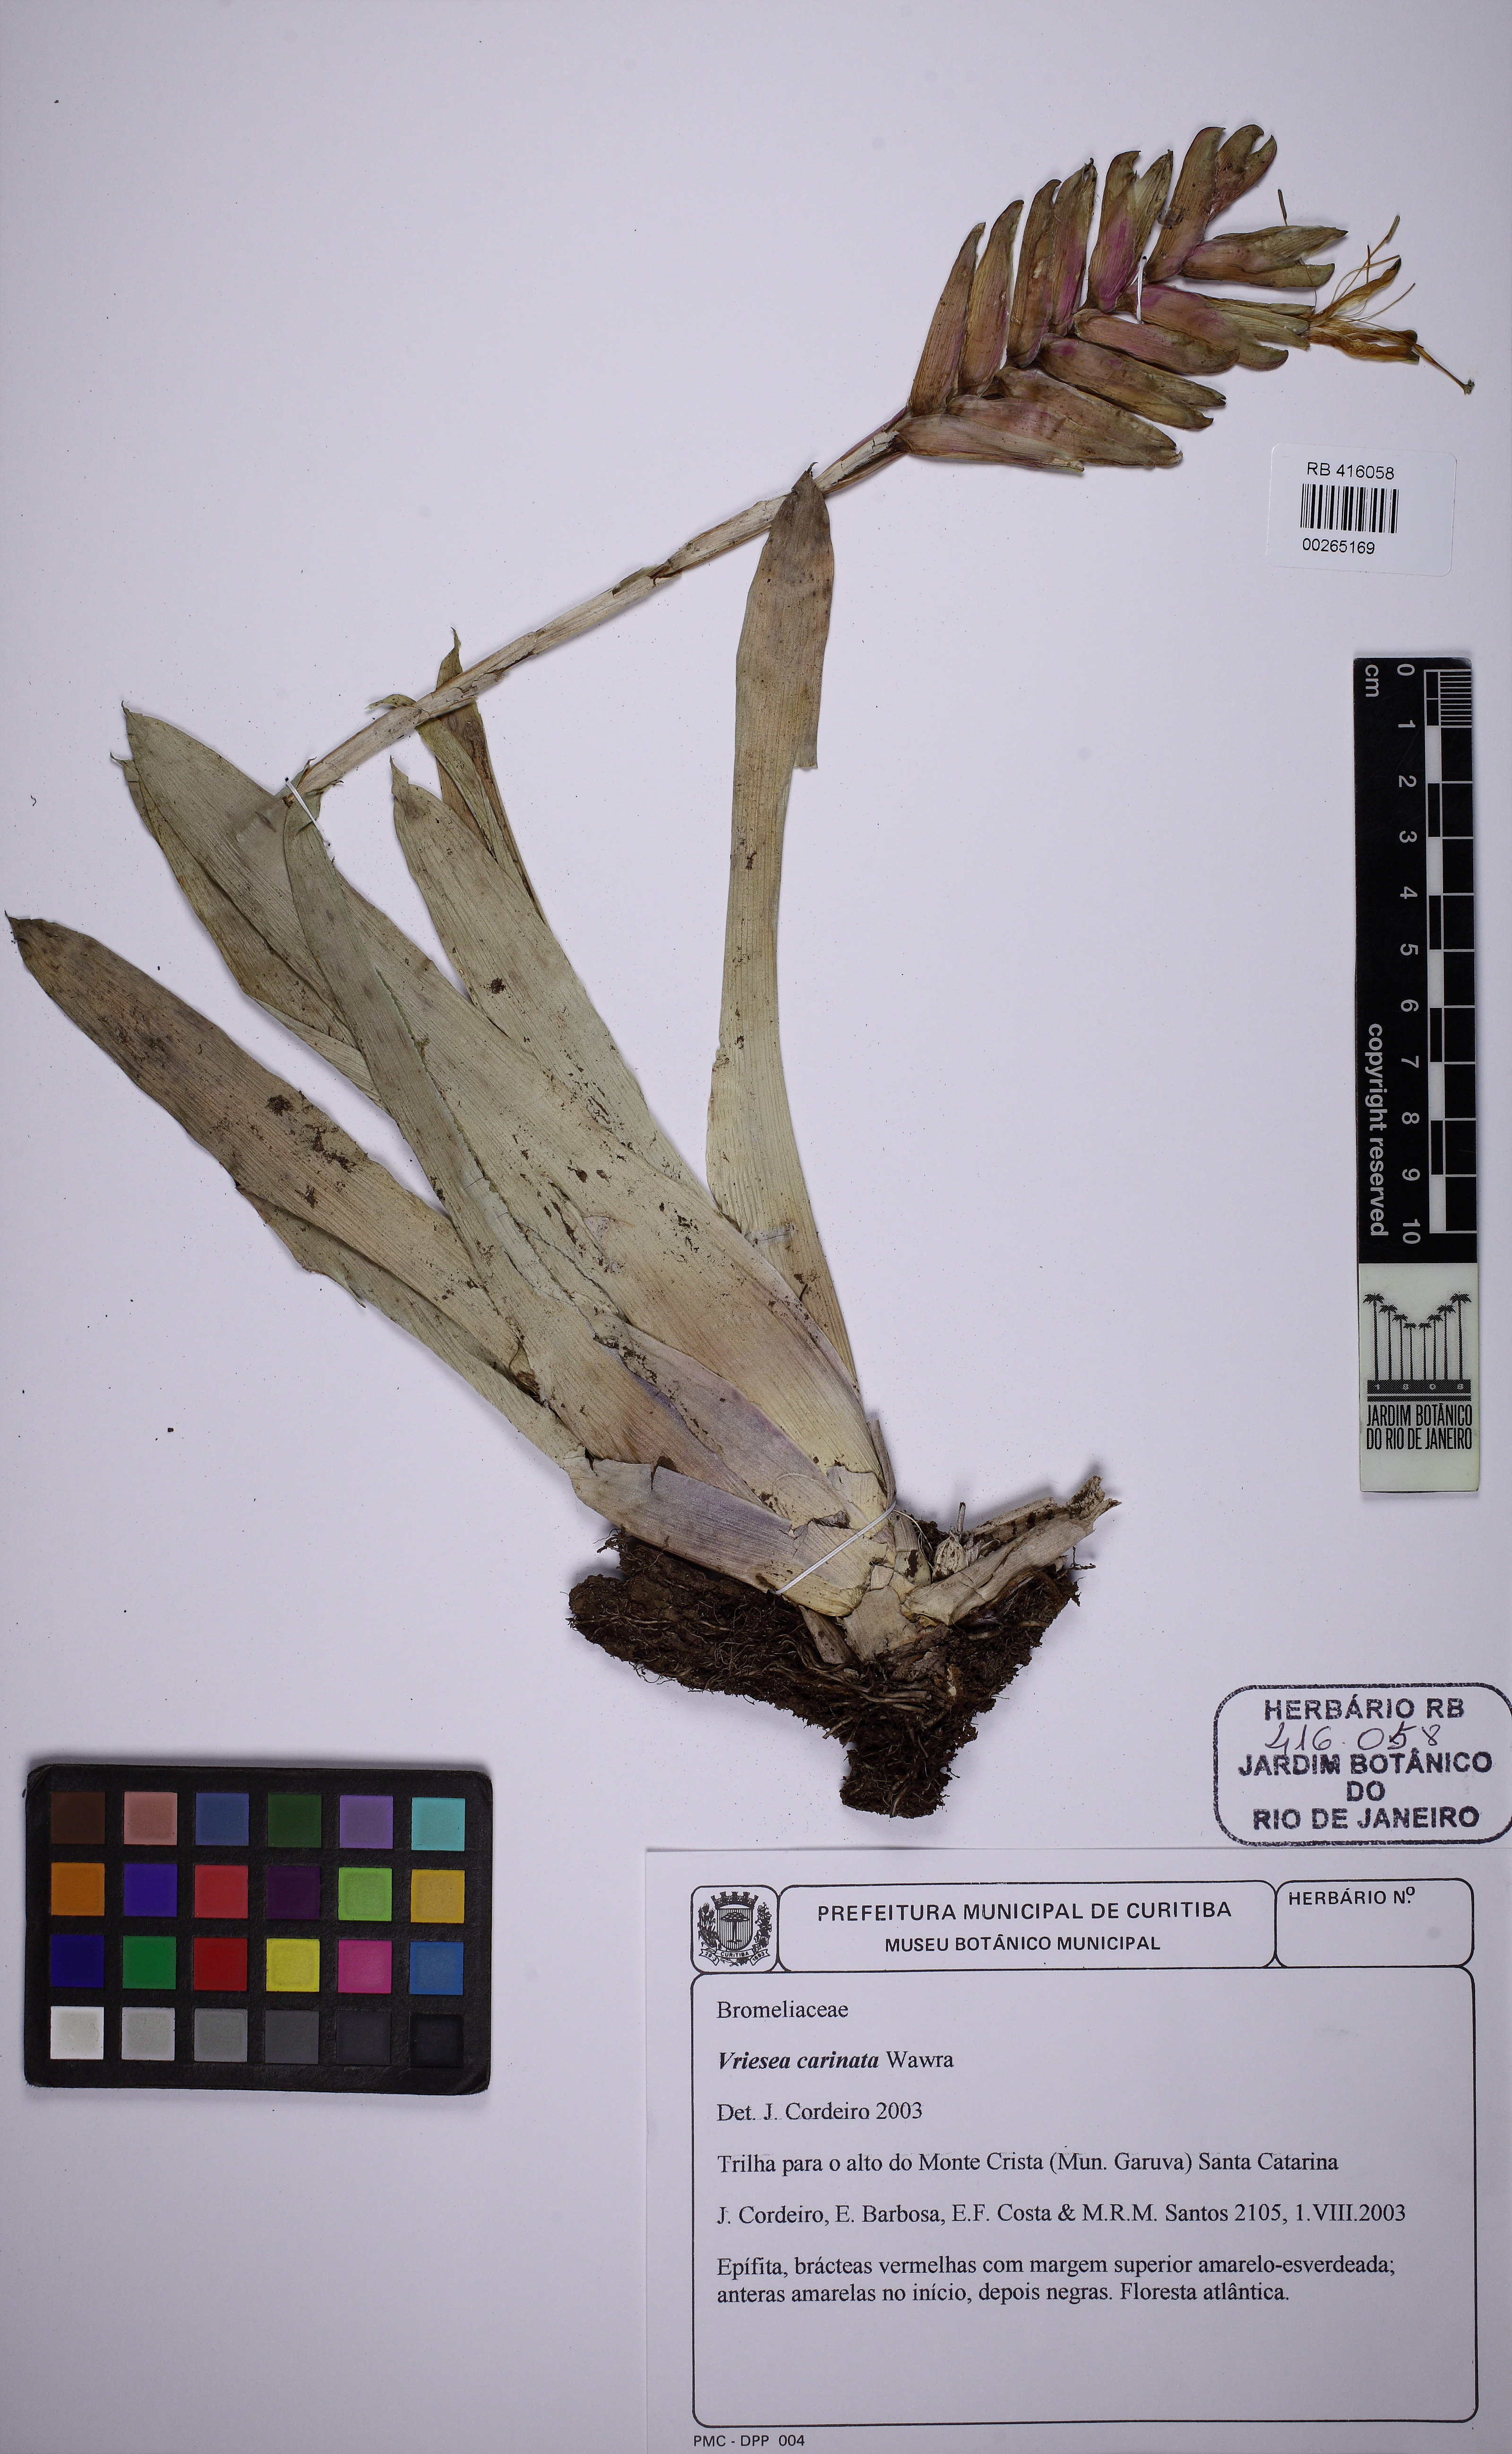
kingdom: Plantae
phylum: Tracheophyta
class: Liliopsida
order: Poales
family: Bromeliaceae
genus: Vriesea
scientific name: Vriesea carinata
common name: Lobster-claws
